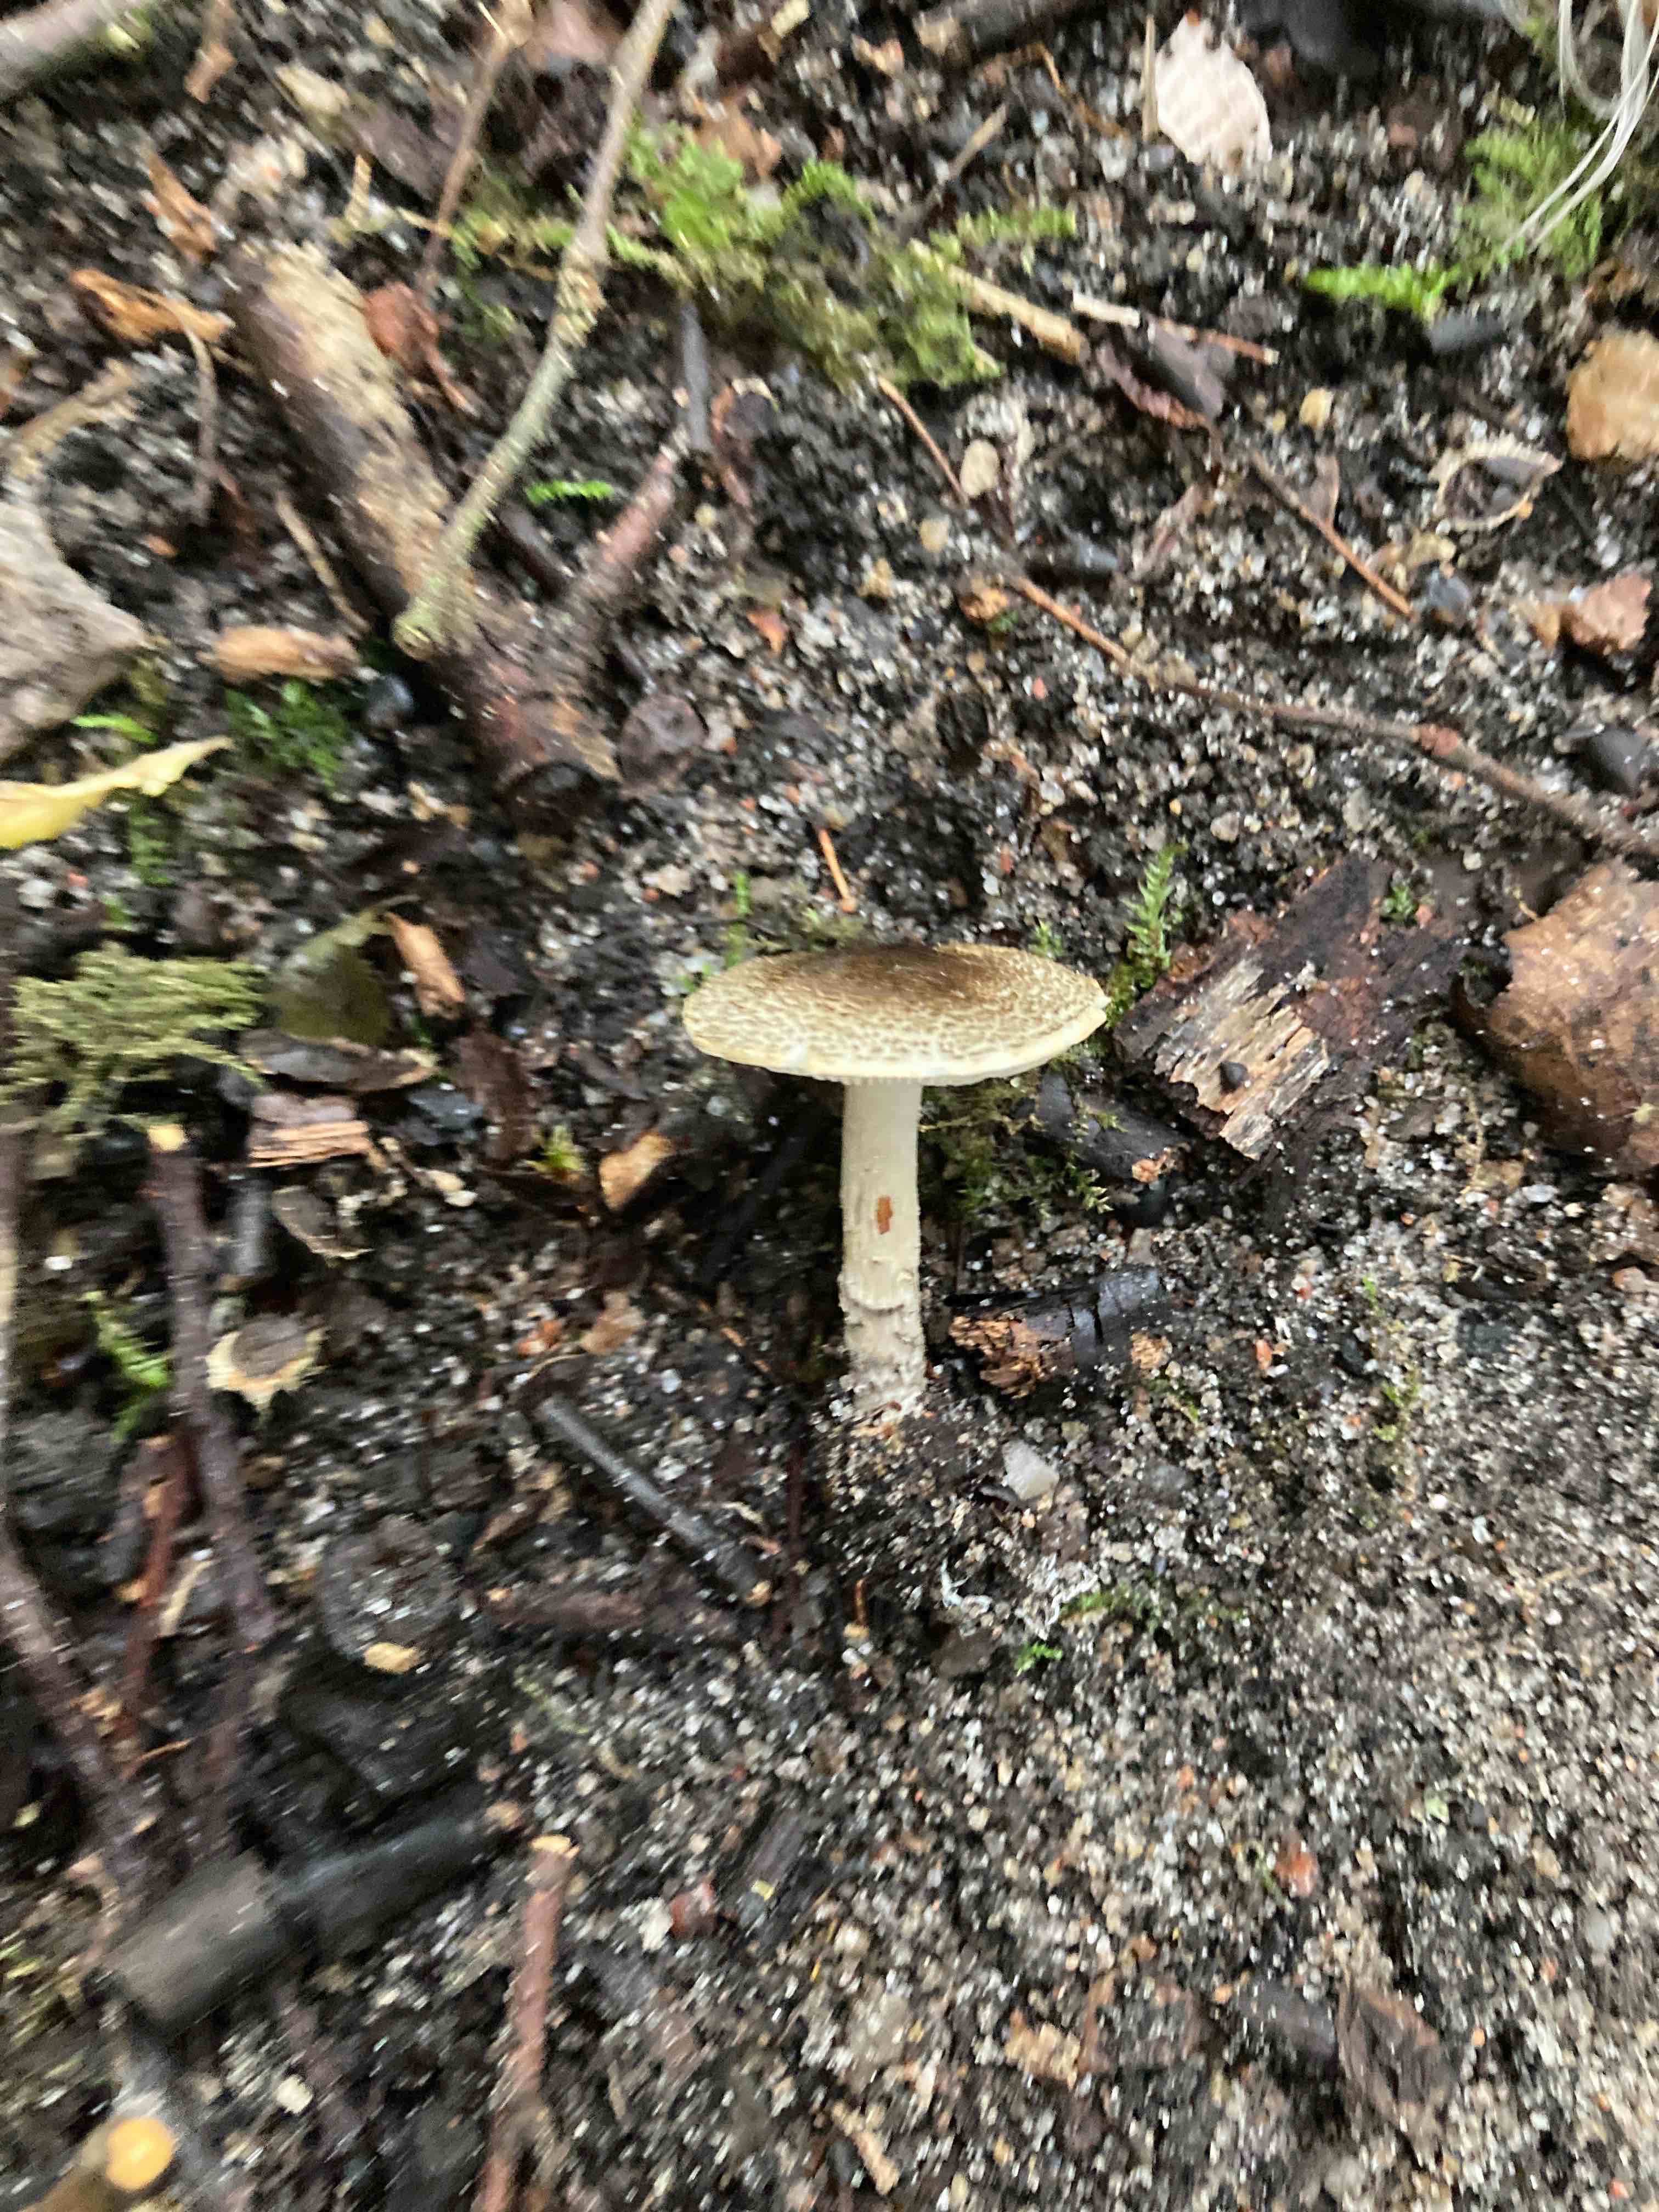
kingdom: Fungi
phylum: Basidiomycota
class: Agaricomycetes
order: Agaricales
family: Agaricaceae
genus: Lepiota
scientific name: Lepiota griseovirens
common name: grågrøn parasolhat
